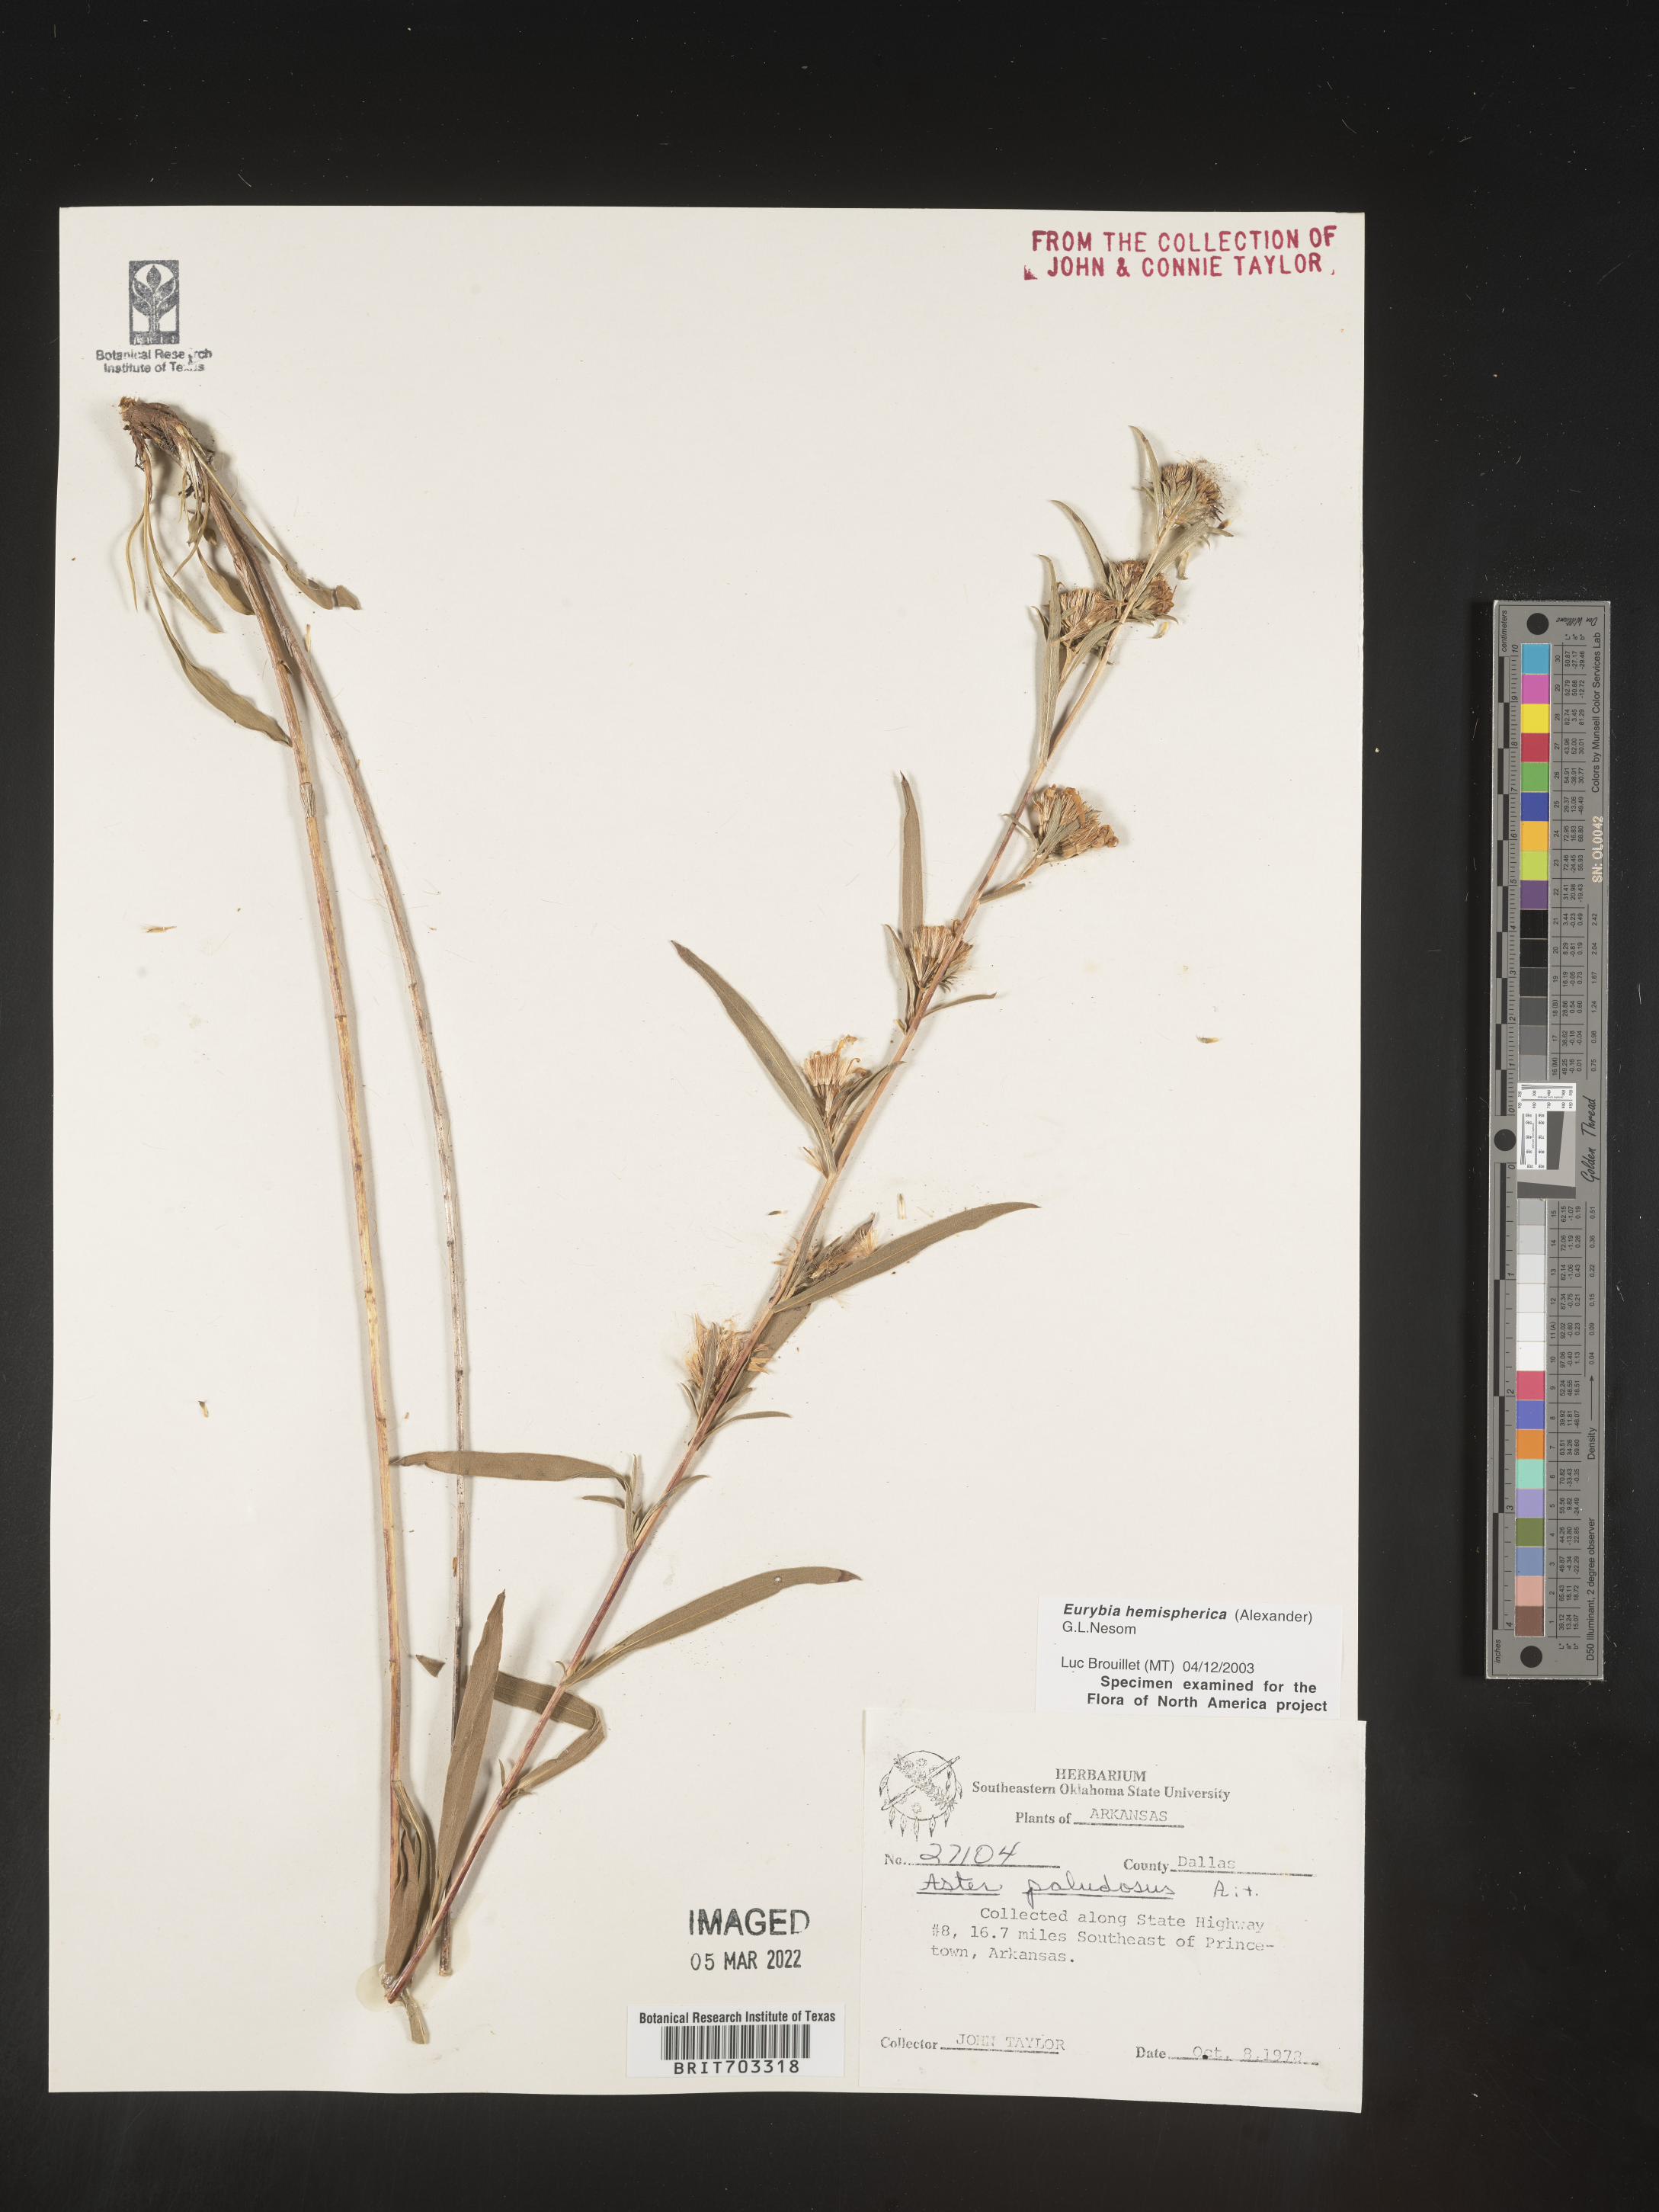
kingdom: Plantae
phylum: Tracheophyta
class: Magnoliopsida
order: Asterales
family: Asteraceae
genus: Eurybia
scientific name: Eurybia hemispherica
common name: Showy aster
